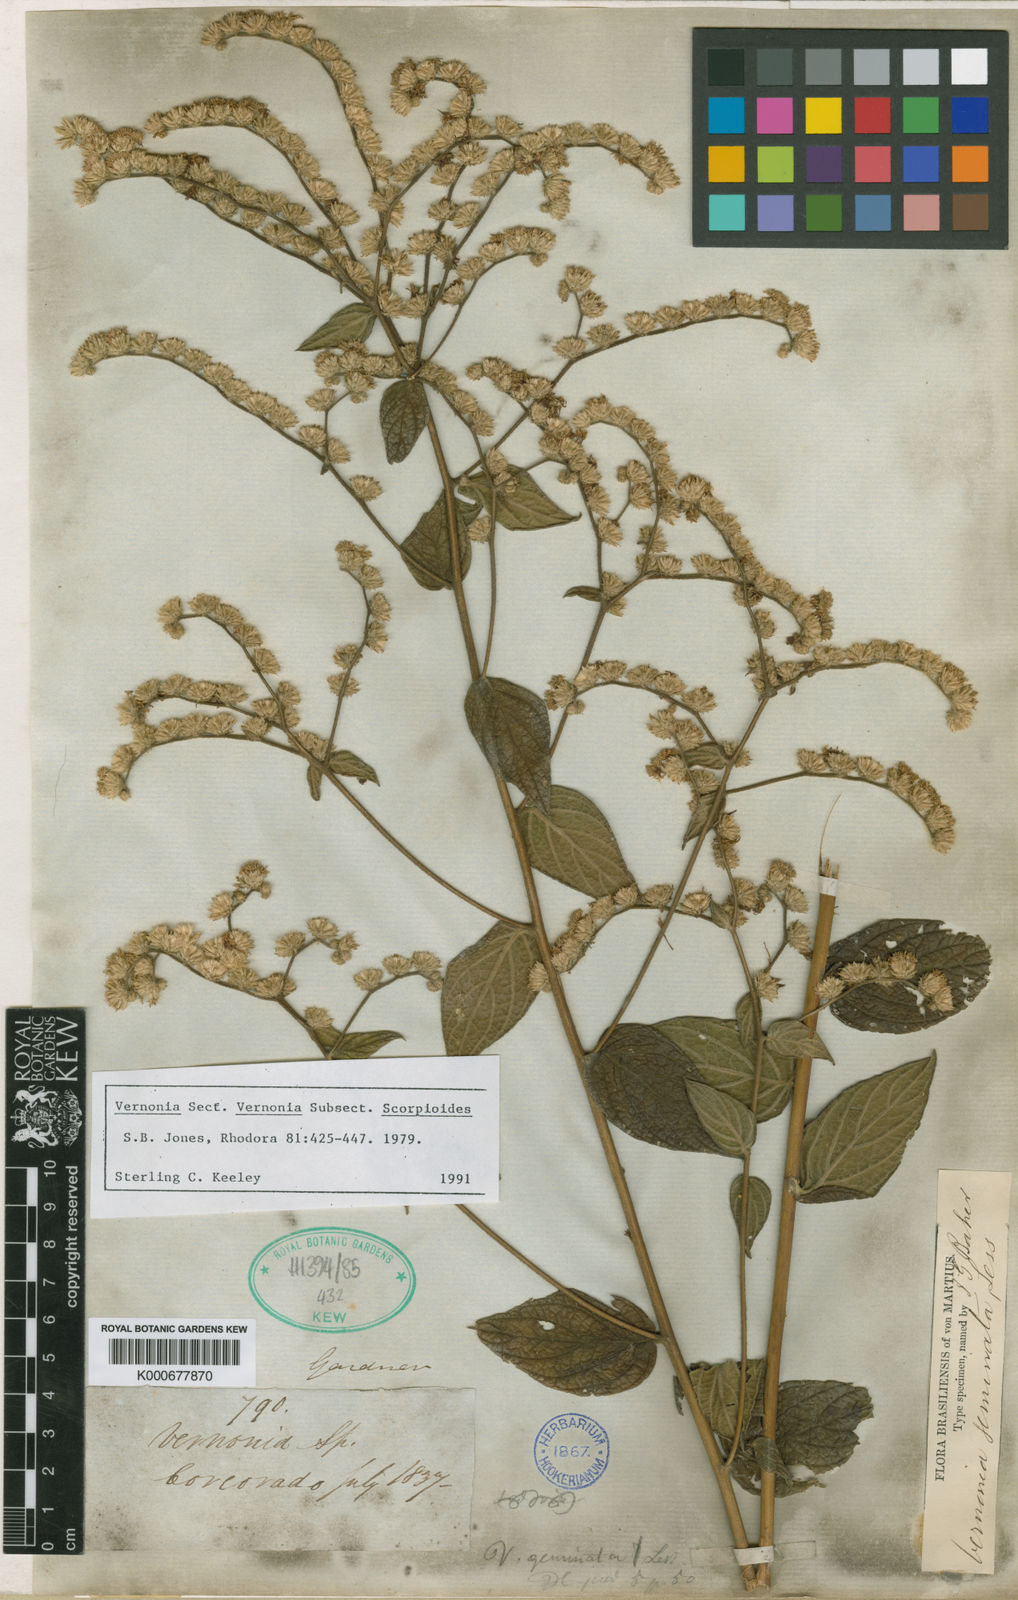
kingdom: Plantae
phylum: Tracheophyta
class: Magnoliopsida
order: Asterales
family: Asteraceae
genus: Lepidaploa
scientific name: Lepidaploa canescens
